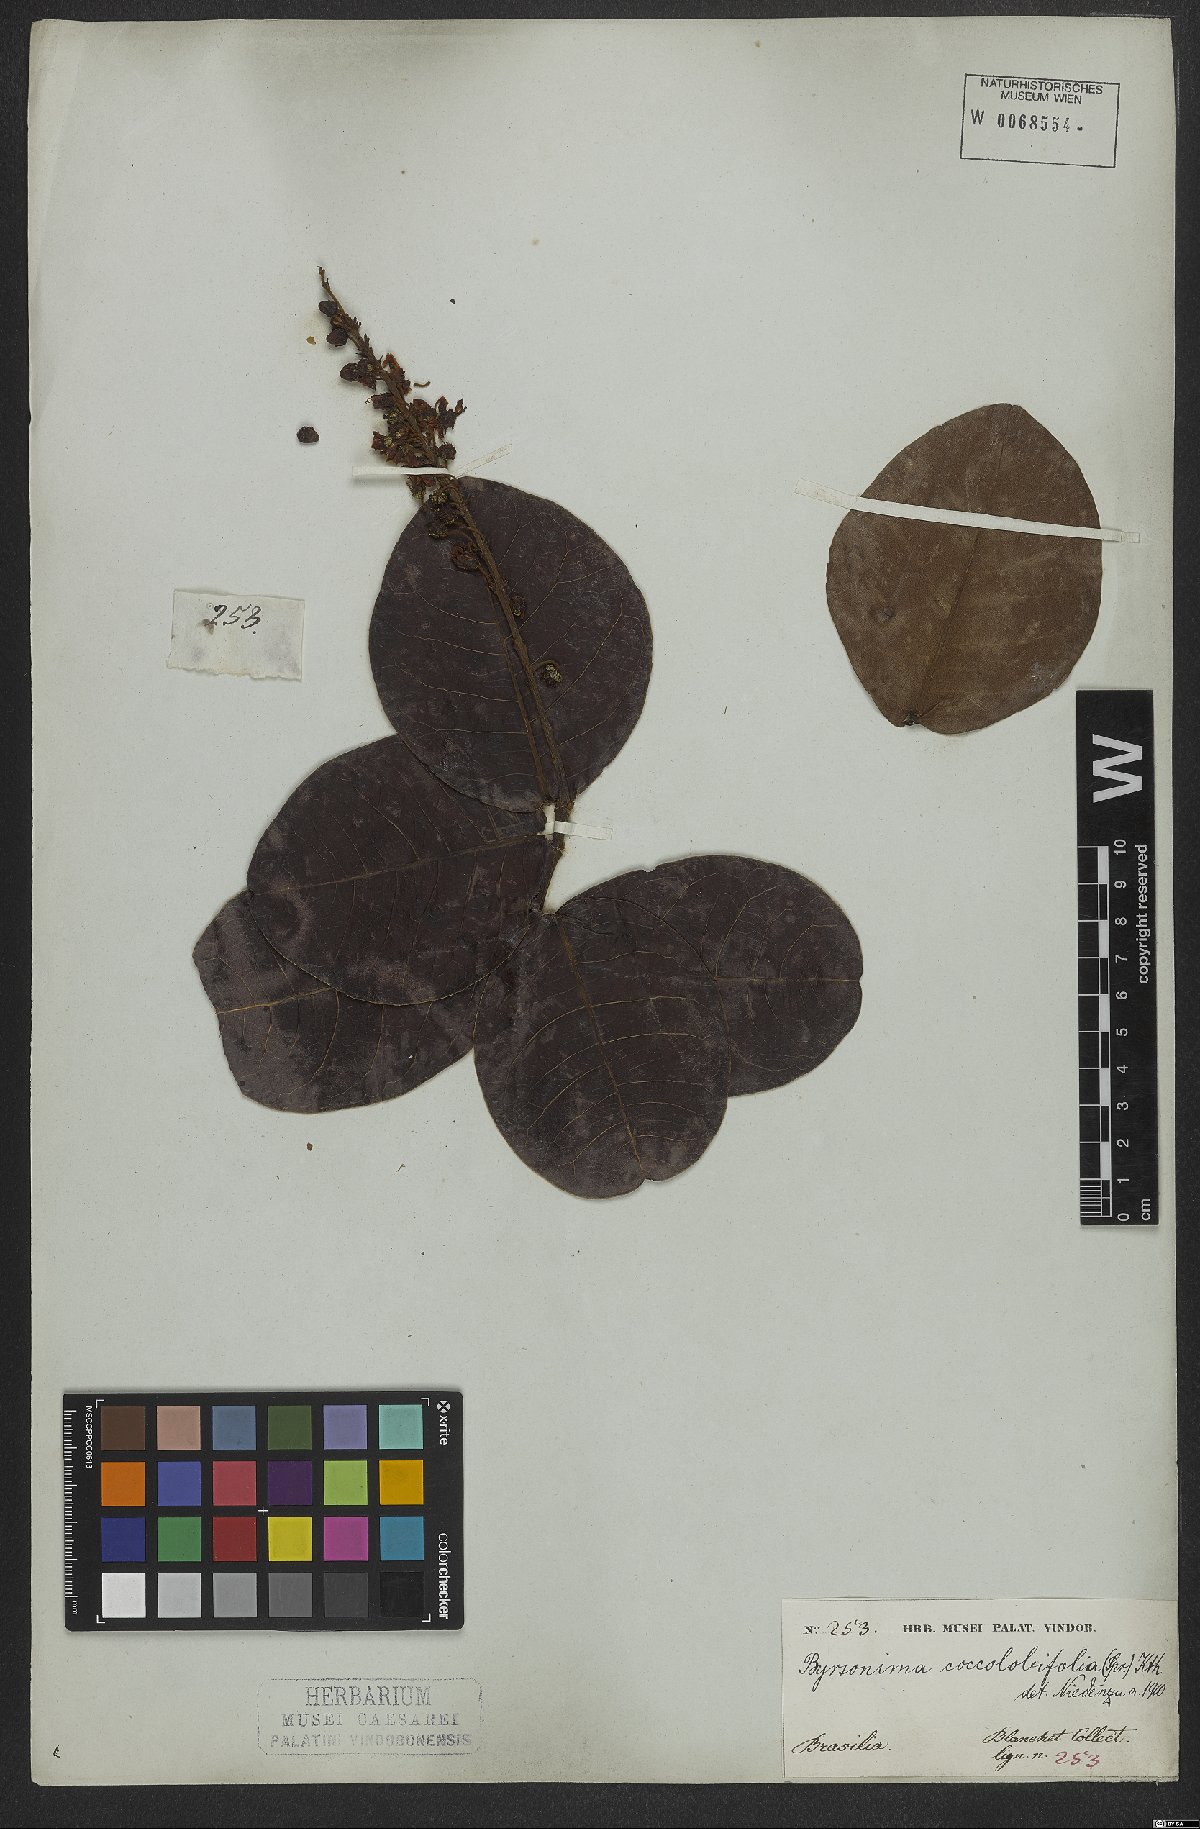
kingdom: Plantae
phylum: Tracheophyta
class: Magnoliopsida
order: Malpighiales
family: Malpighiaceae
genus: Byrsonima
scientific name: Byrsonima coccolobifolia
